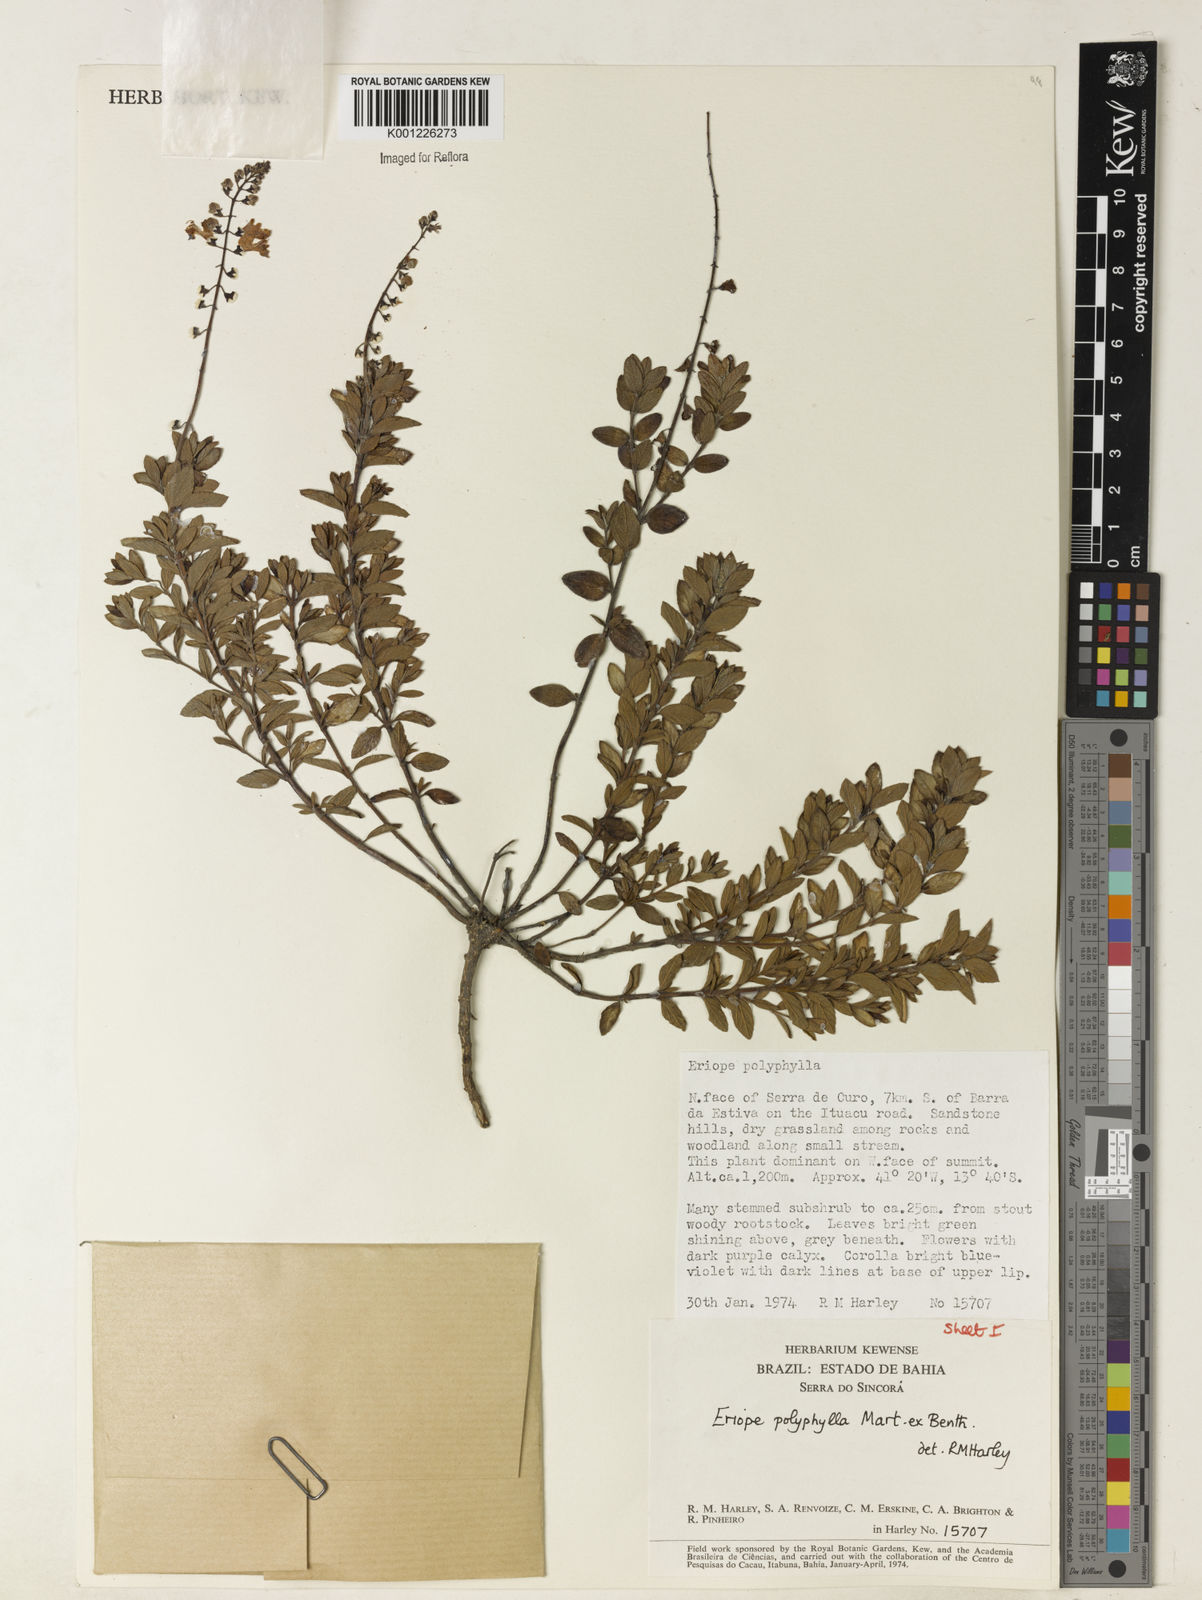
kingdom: Plantae
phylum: Tracheophyta
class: Magnoliopsida
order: Lamiales
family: Lamiaceae
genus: Eriope
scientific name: Eriope polyphylla
